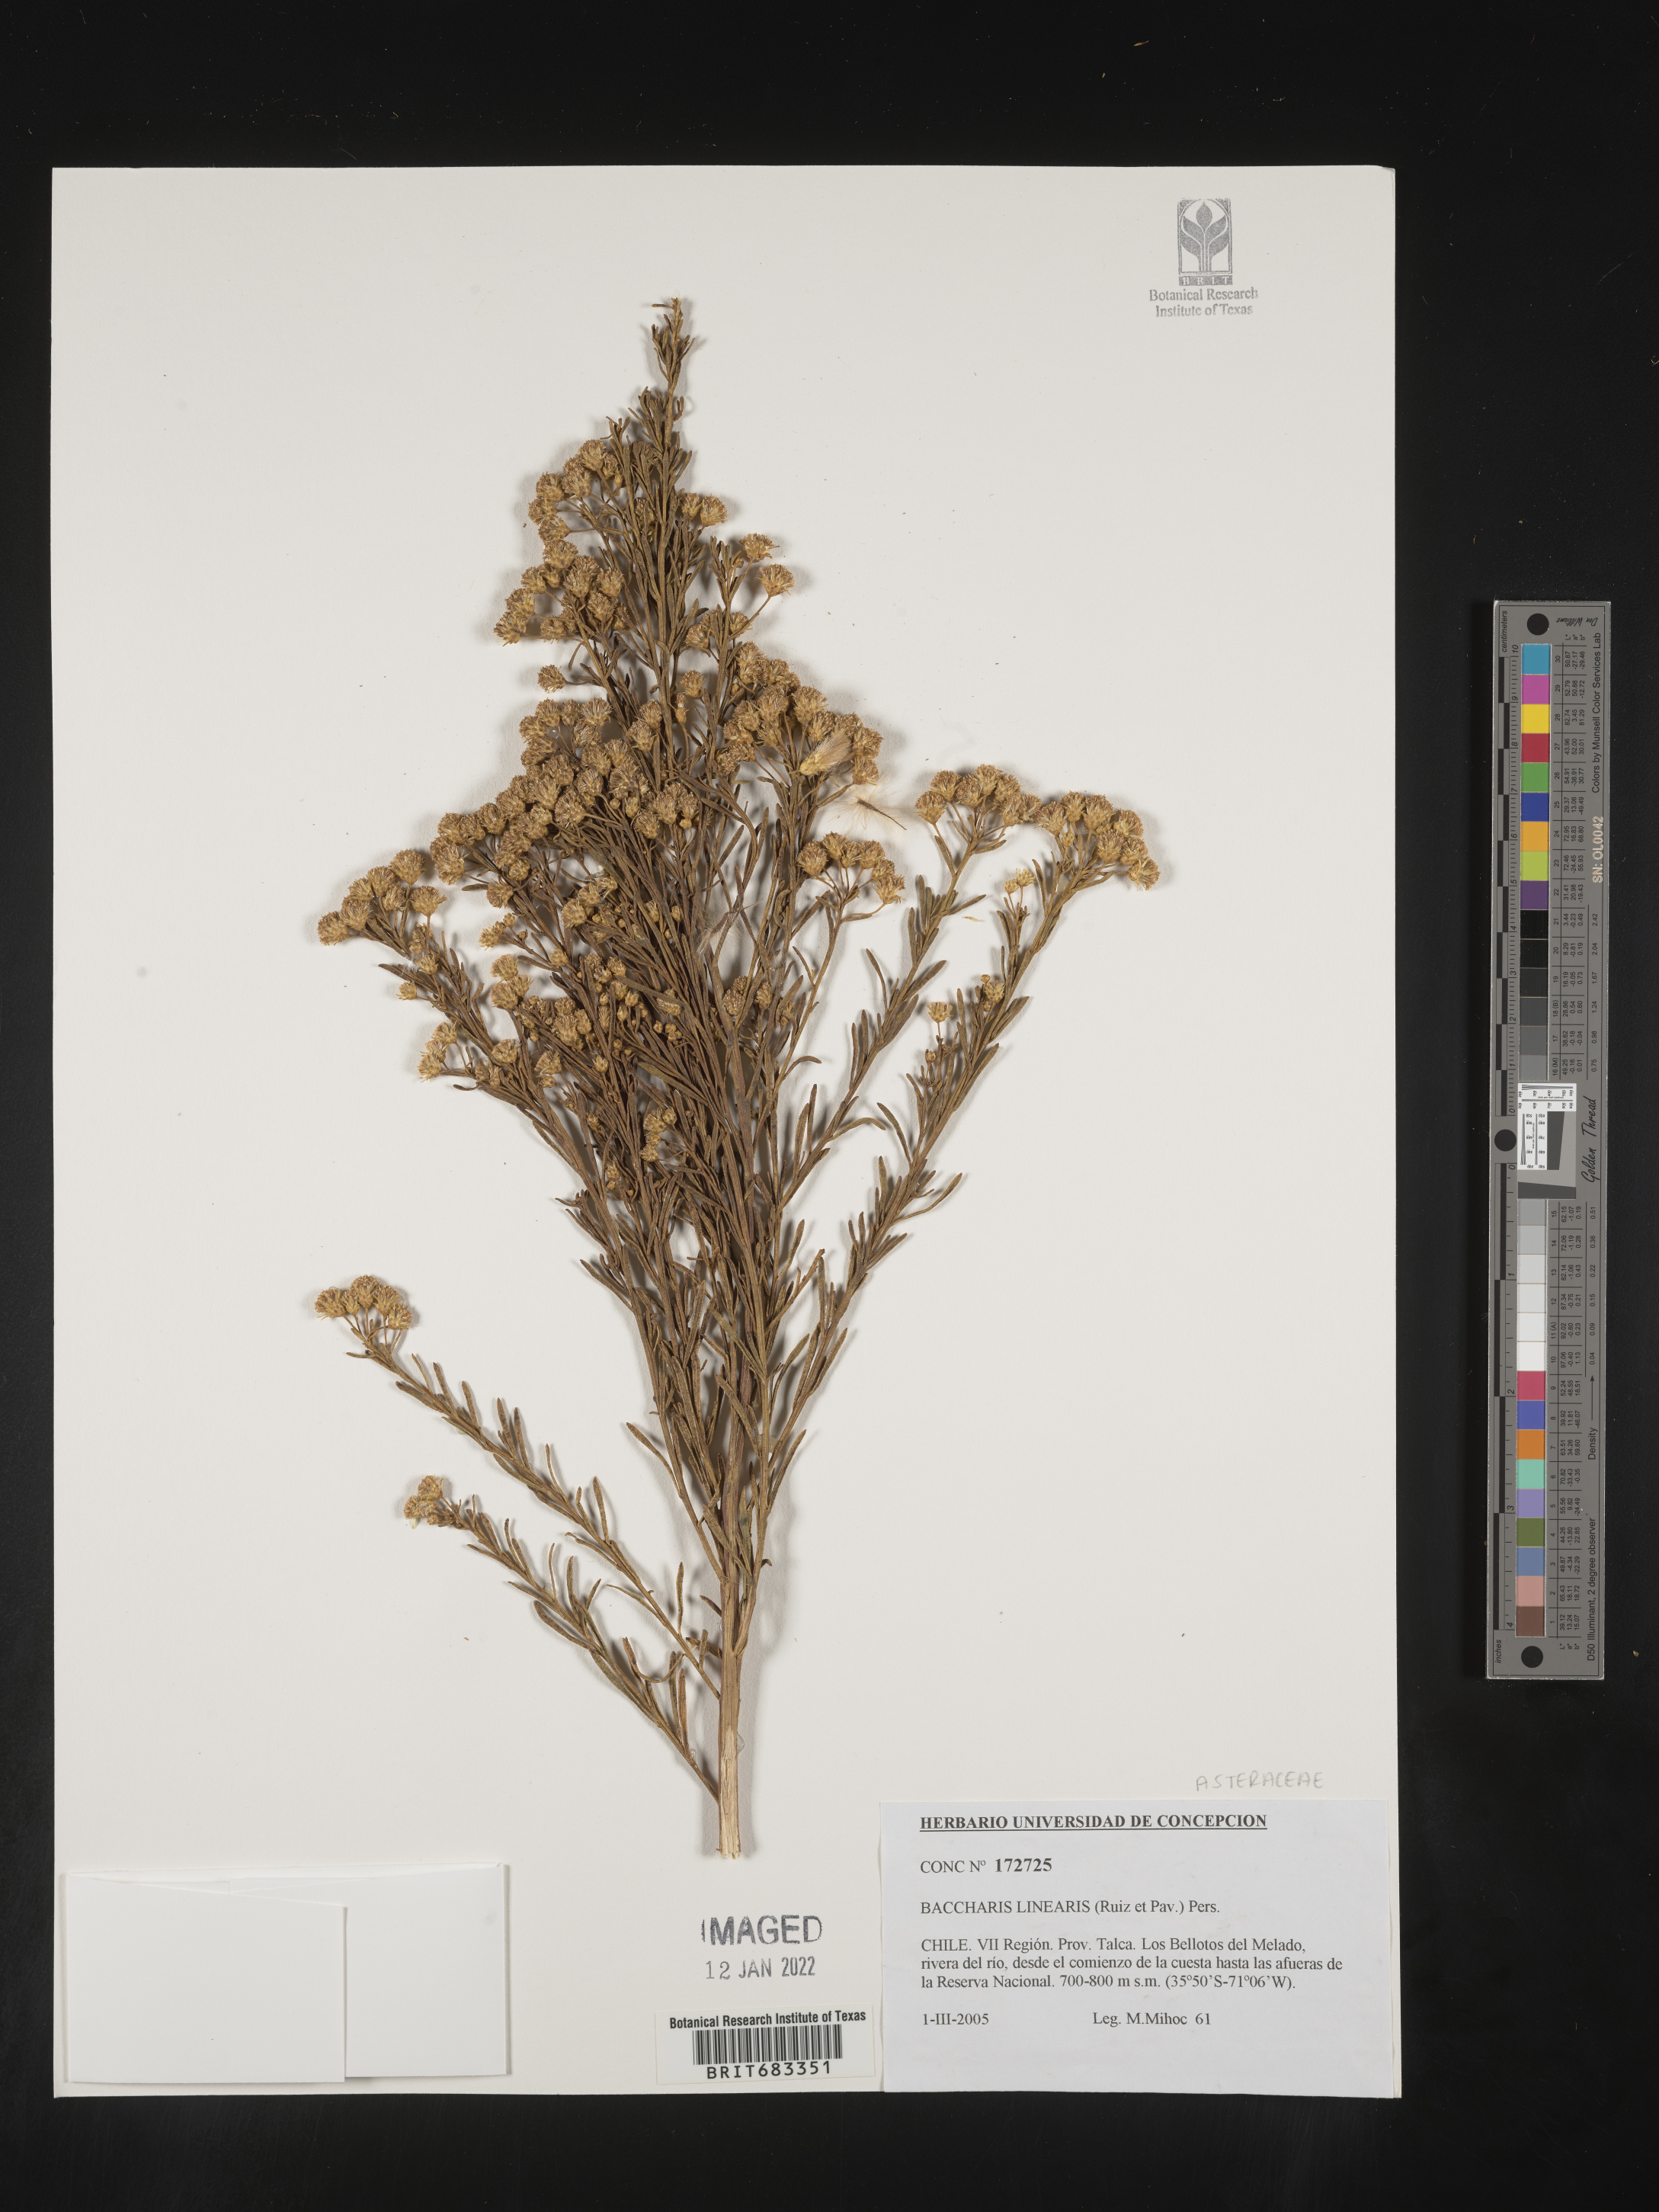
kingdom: Plantae
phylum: Tracheophyta
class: Magnoliopsida
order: Asterales
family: Asteraceae
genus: Baccharis
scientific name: Baccharis
